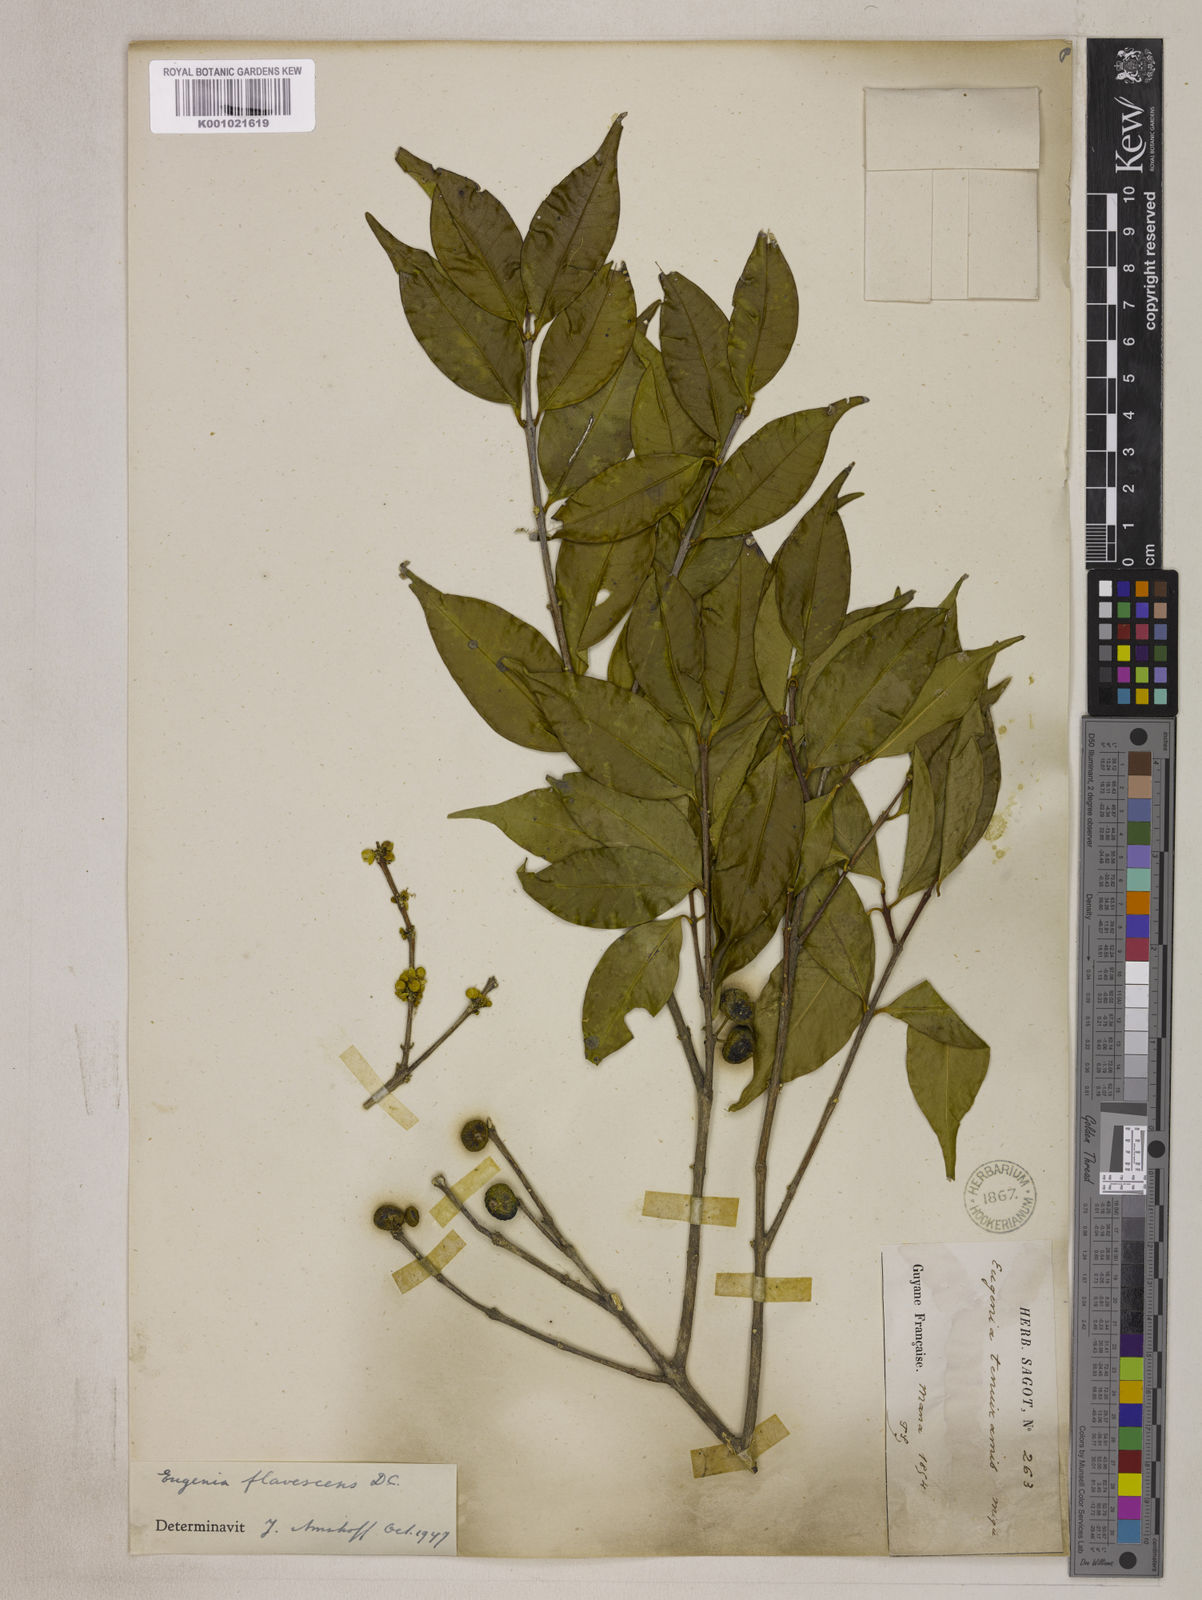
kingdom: Plantae
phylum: Tracheophyta
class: Magnoliopsida
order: Myrtales
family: Myrtaceae
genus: Eugenia
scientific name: Eugenia flavescens
